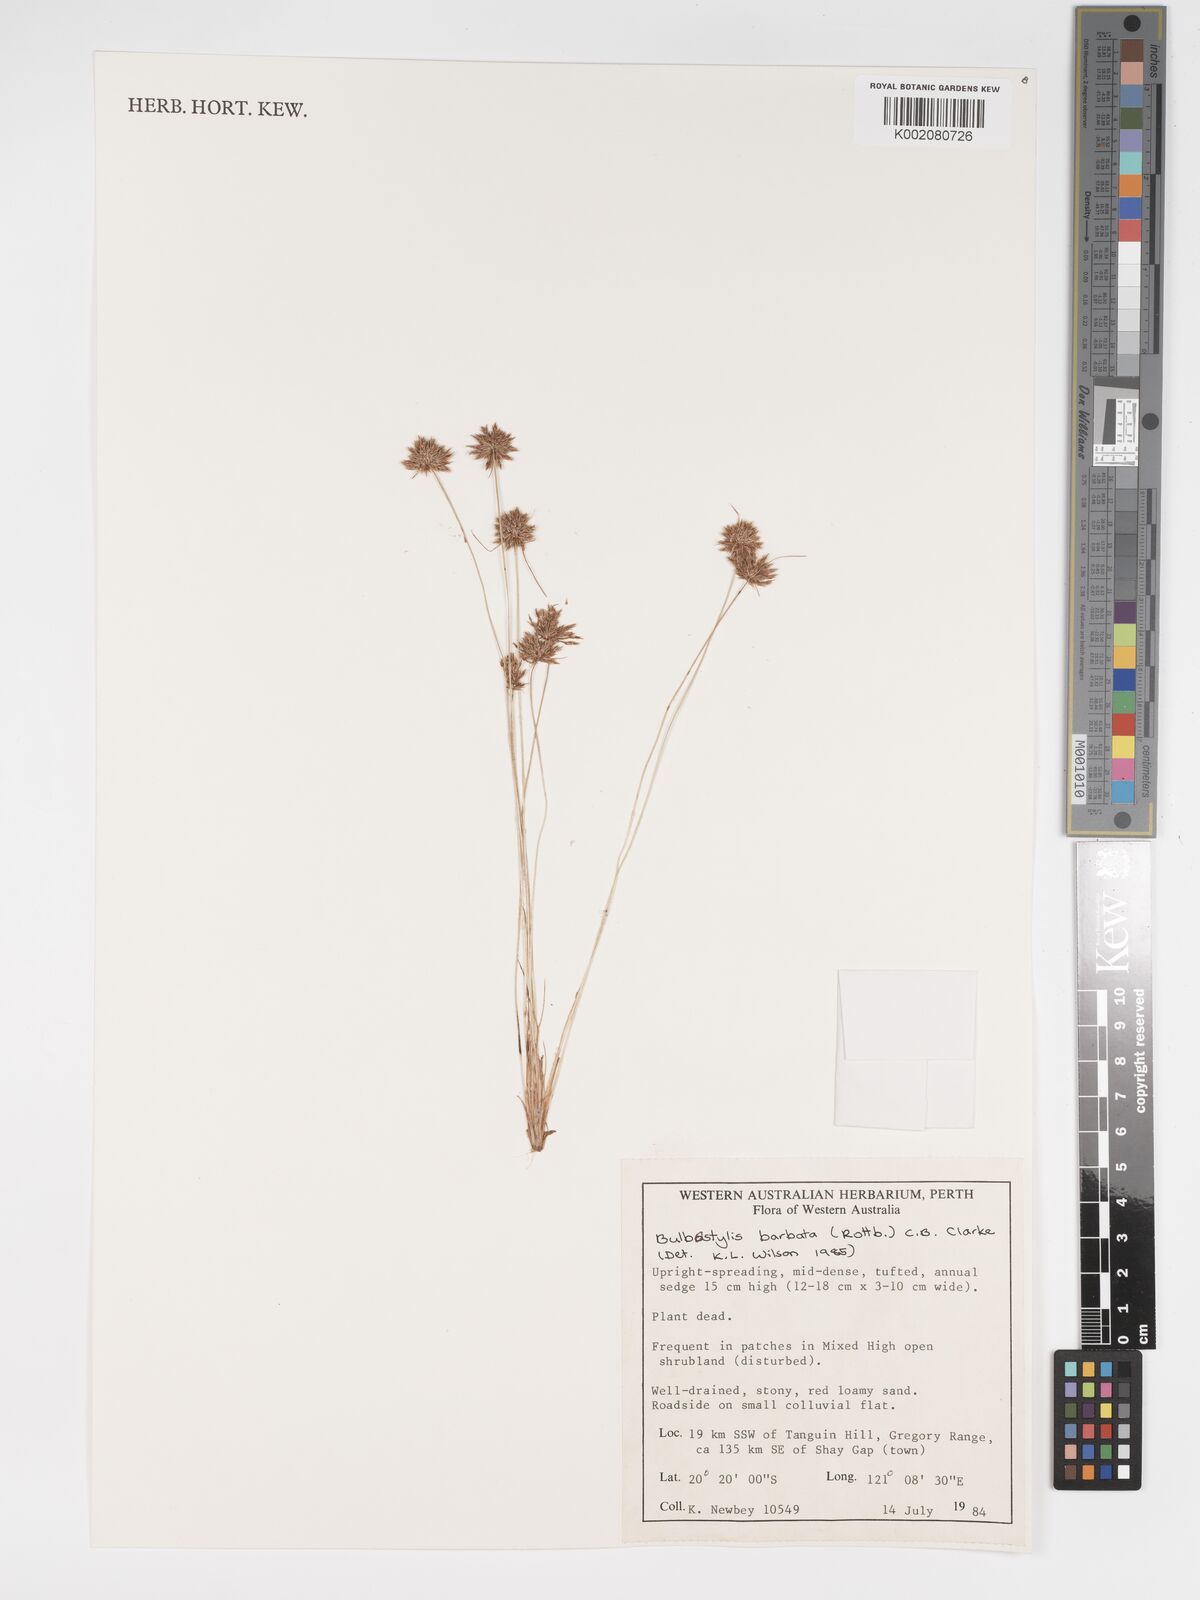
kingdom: Plantae
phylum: Tracheophyta
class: Liliopsida
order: Poales
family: Cyperaceae
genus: Bulbostylis
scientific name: Bulbostylis barbata
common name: Watergrass
